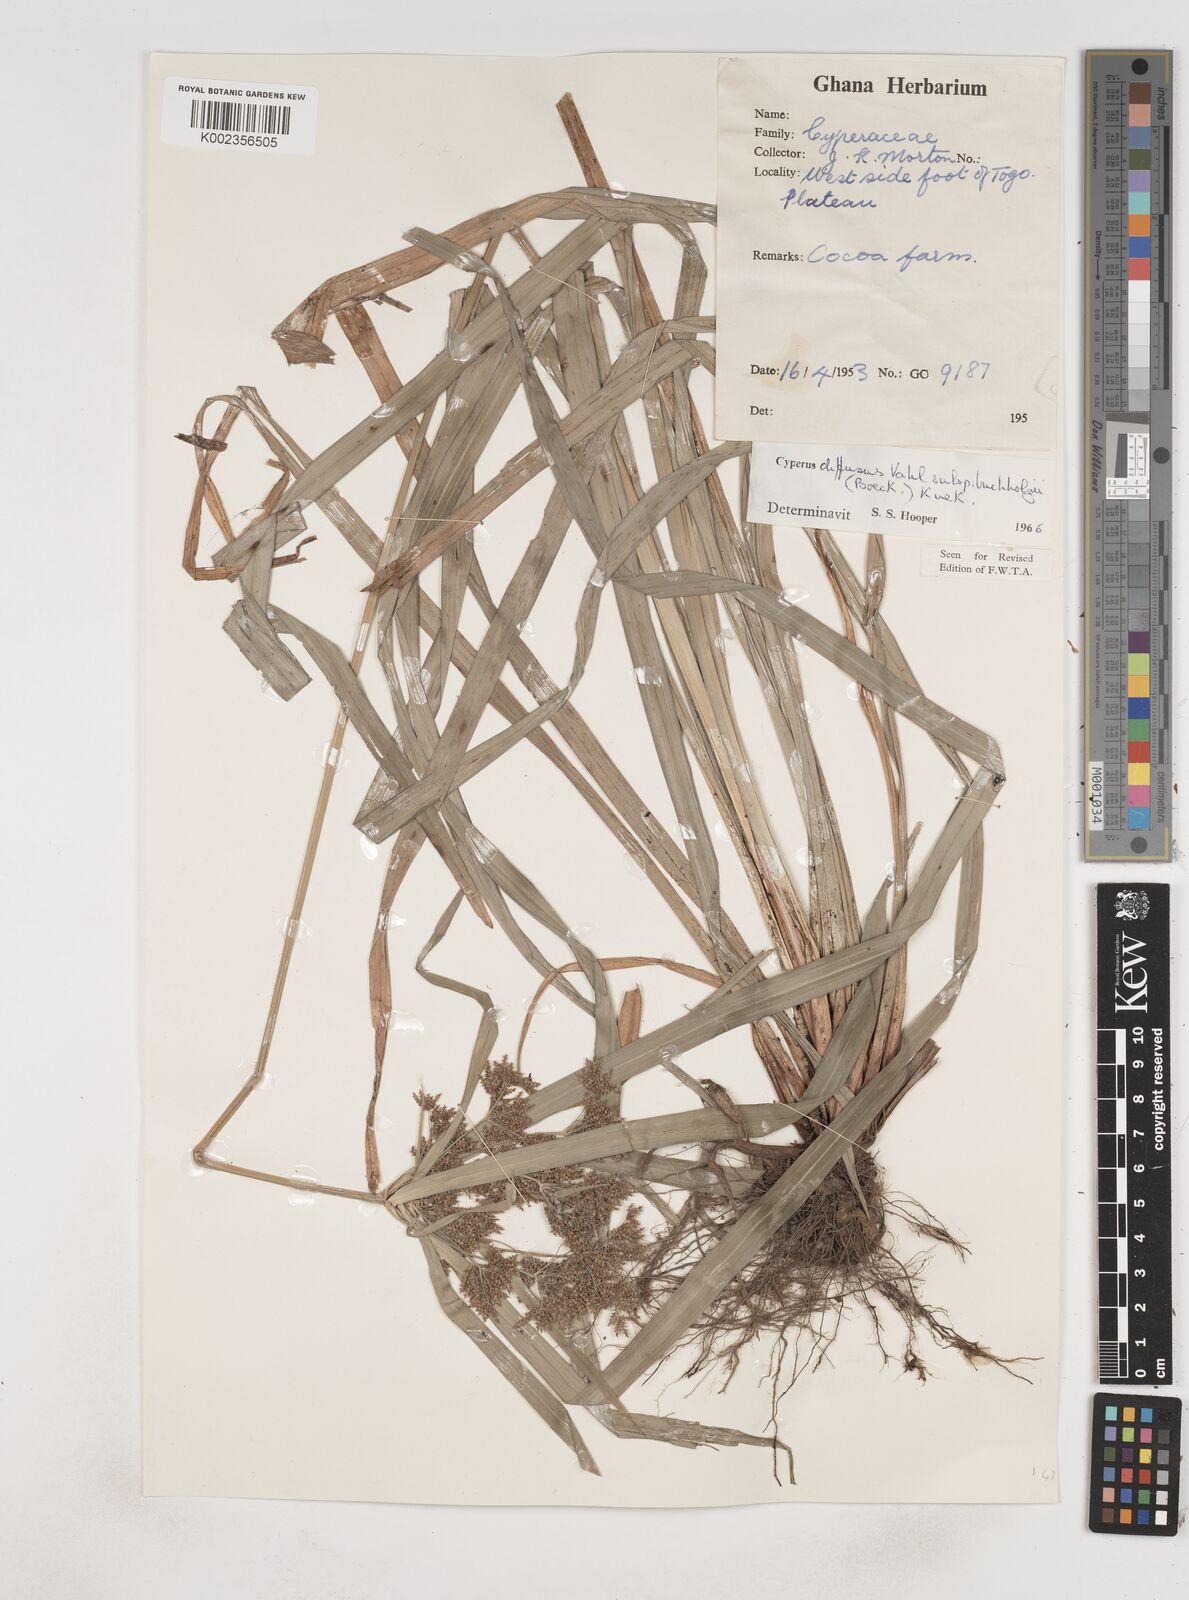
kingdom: Plantae
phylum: Tracheophyta
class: Liliopsida
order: Poales
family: Cyperaceae
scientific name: Cyperaceae
